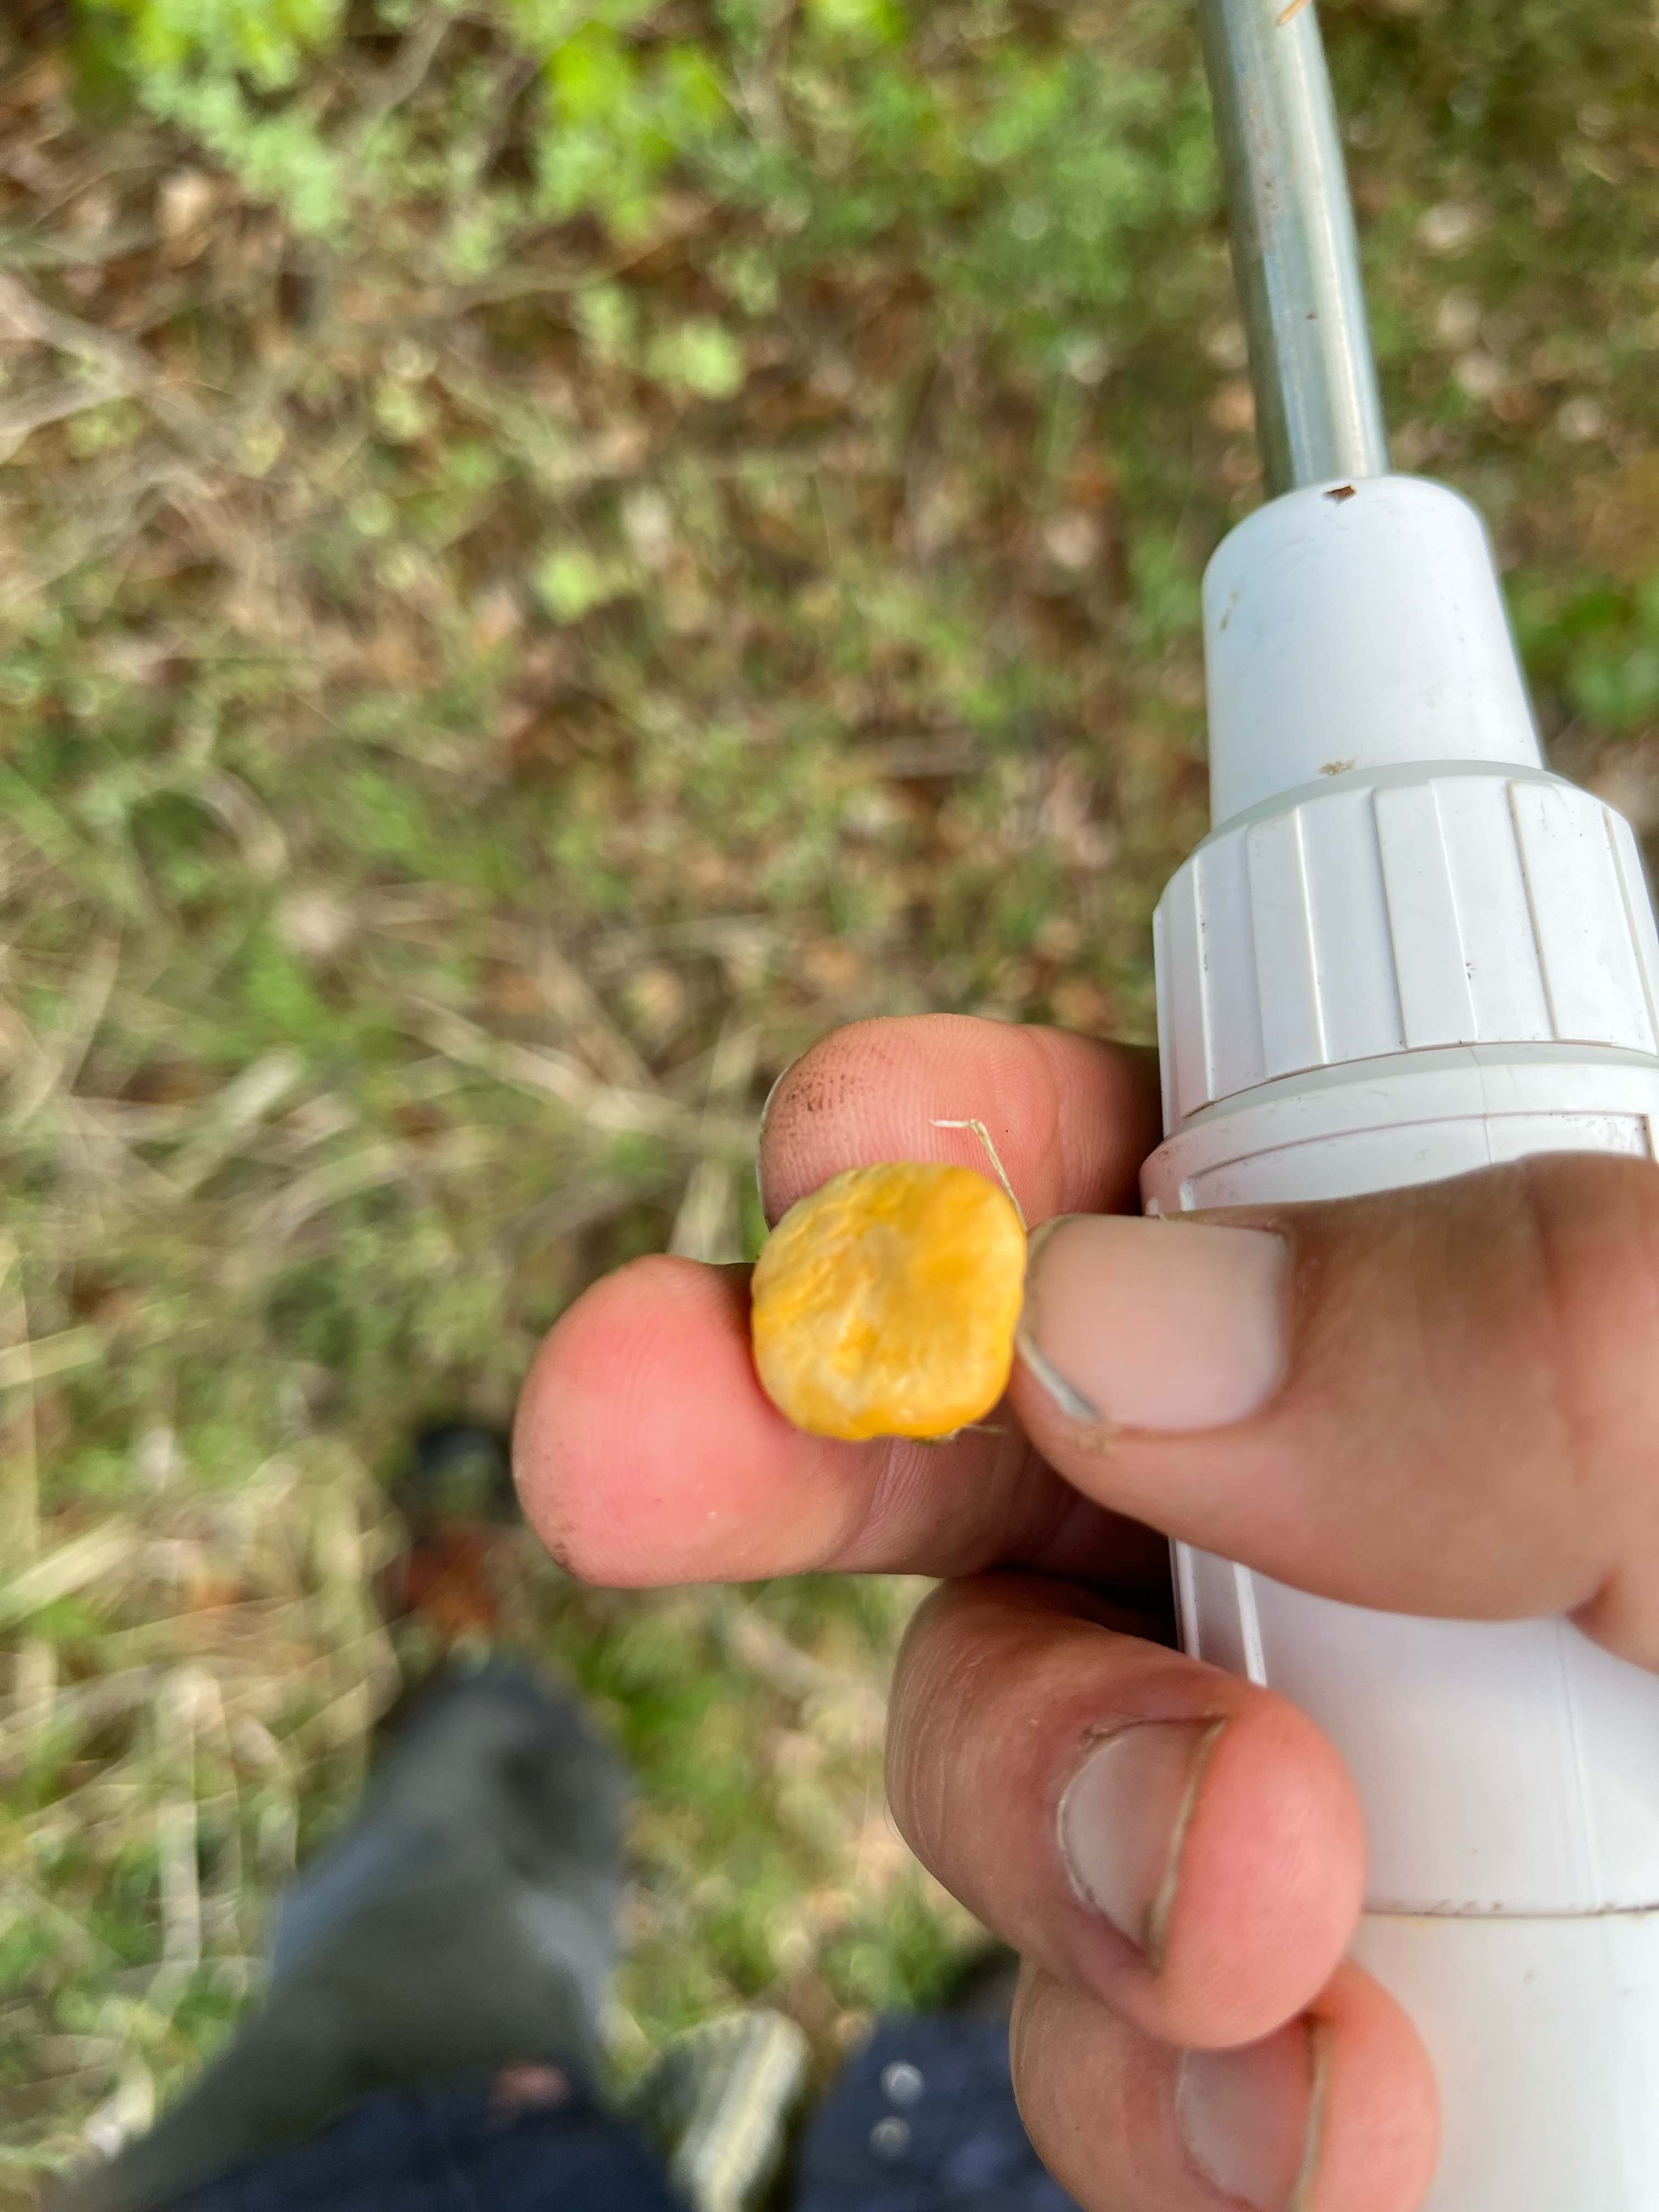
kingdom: Fungi
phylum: Basidiomycota
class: Agaricomycetes
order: Cantharellales
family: Hydnaceae
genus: Cantharellus
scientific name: Cantharellus cibarius
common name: almindelig kantarel
